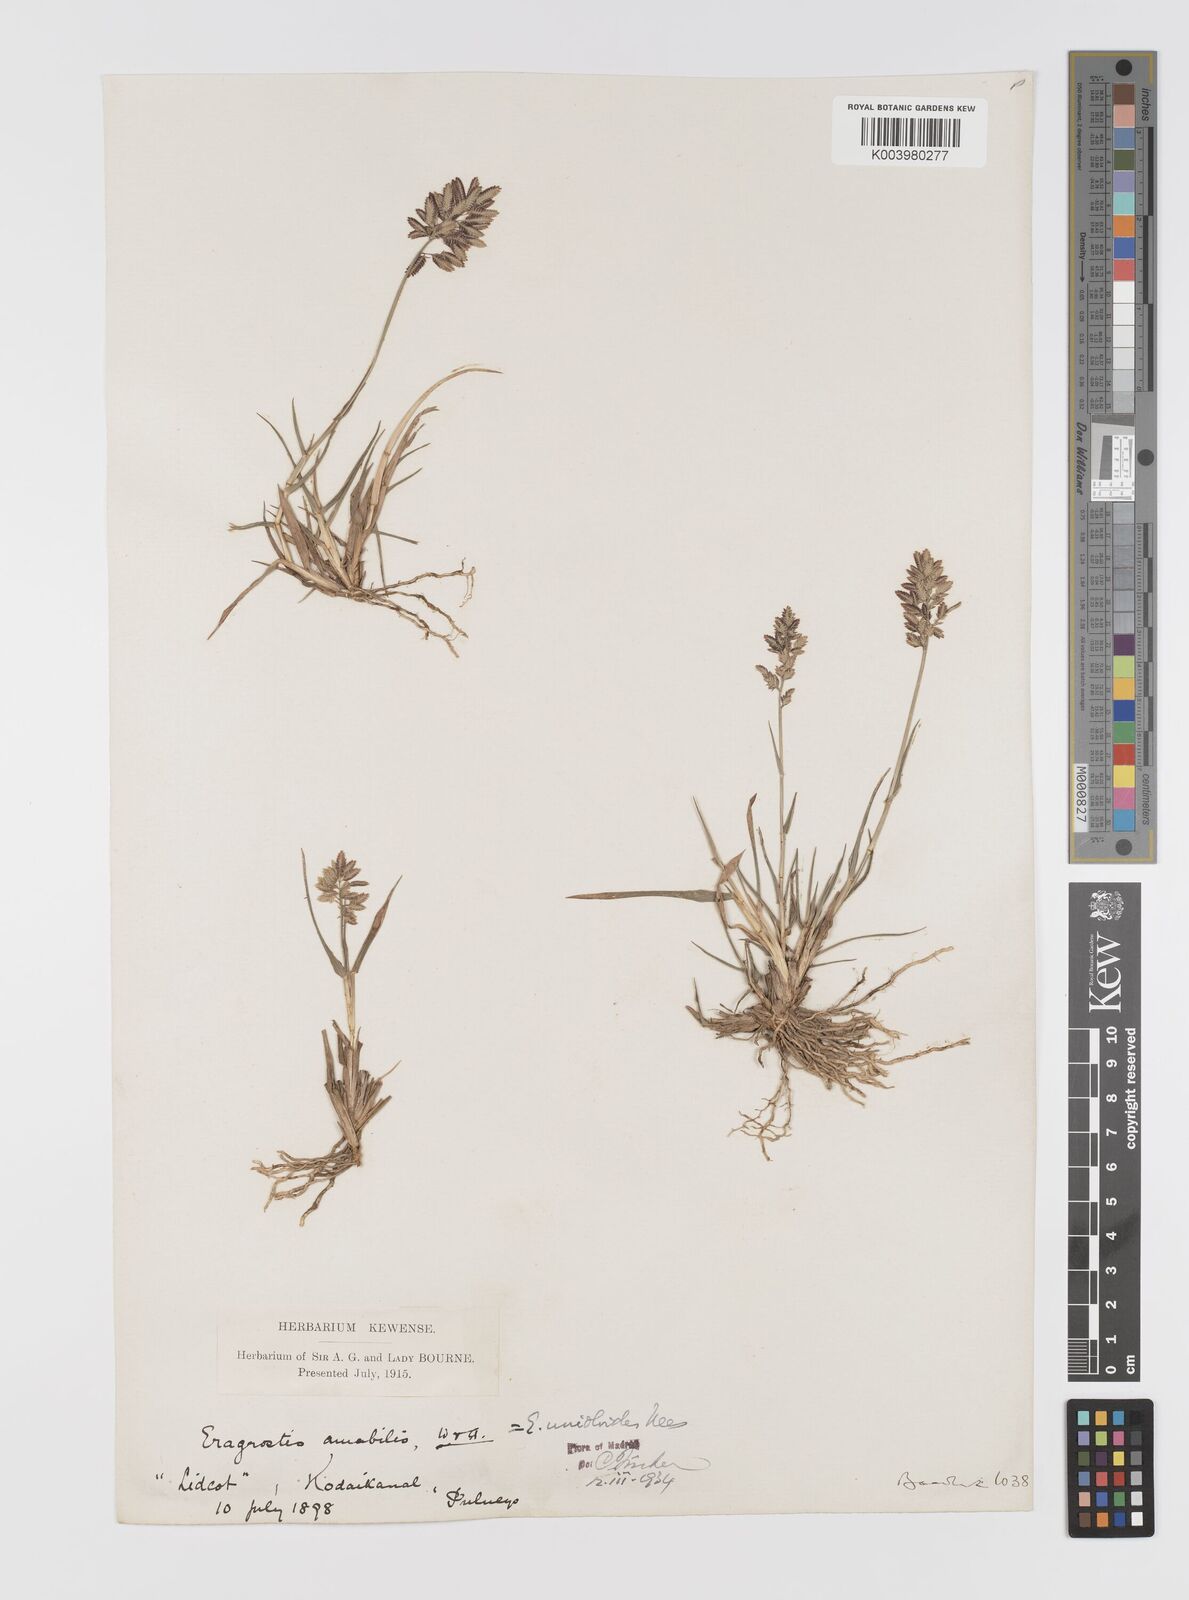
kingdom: Plantae
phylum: Tracheophyta
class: Liliopsida
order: Poales
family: Poaceae
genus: Eragrostis
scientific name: Eragrostis unioloides
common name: Chinese lovegrass
